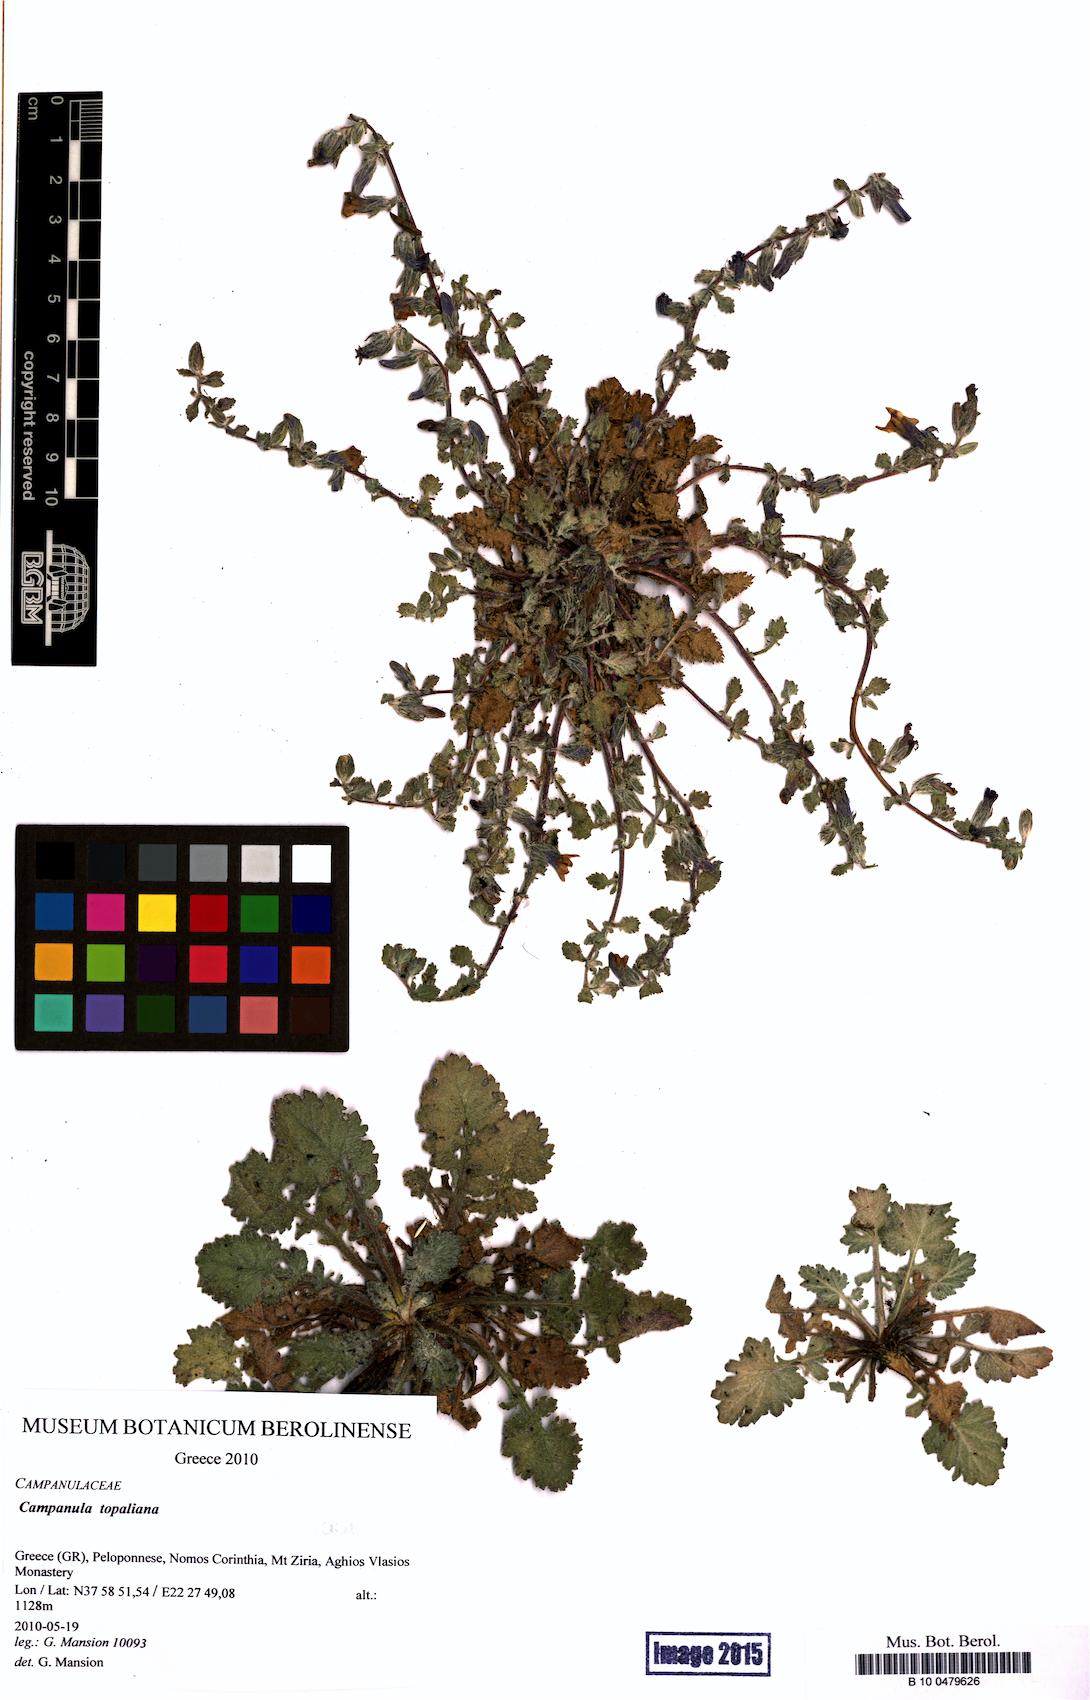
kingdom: Plantae
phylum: Tracheophyta
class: Magnoliopsida
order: Asterales
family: Campanulaceae
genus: Campanula
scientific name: Campanula topaliana
